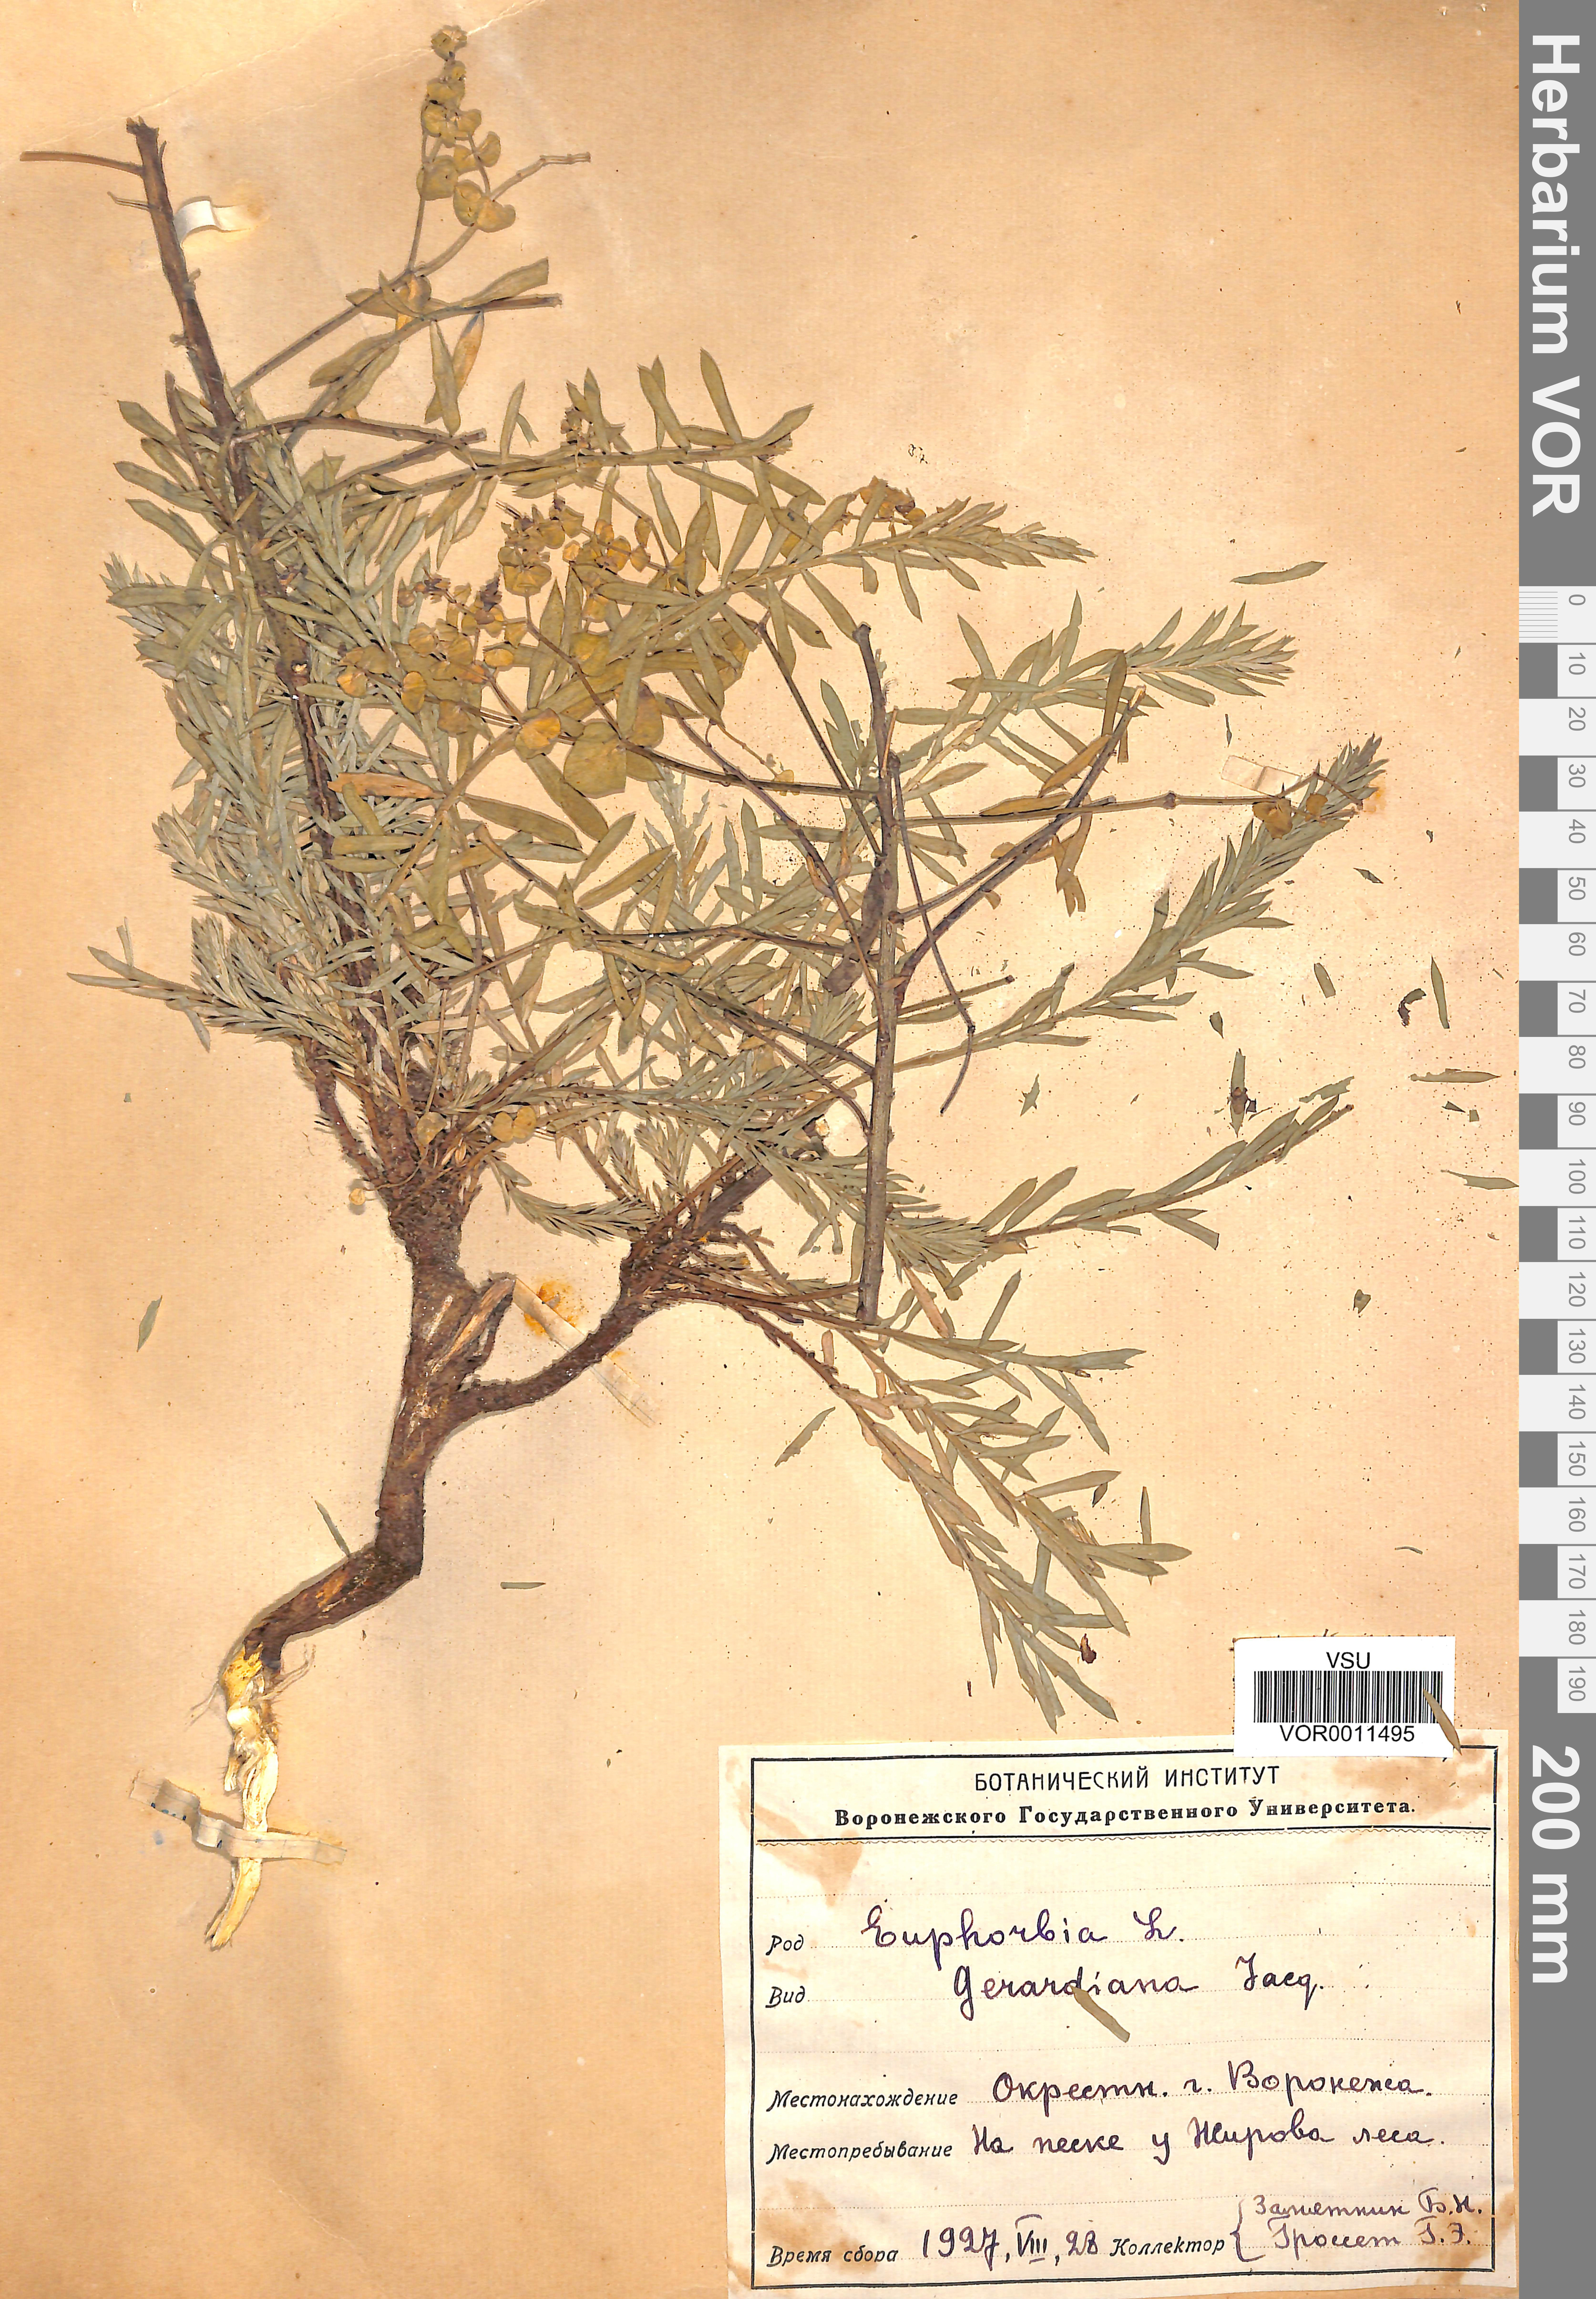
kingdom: Plantae
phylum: Tracheophyta
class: Magnoliopsida
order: Malpighiales
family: Euphorbiaceae
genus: Euphorbia
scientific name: Euphorbia seguieriana
